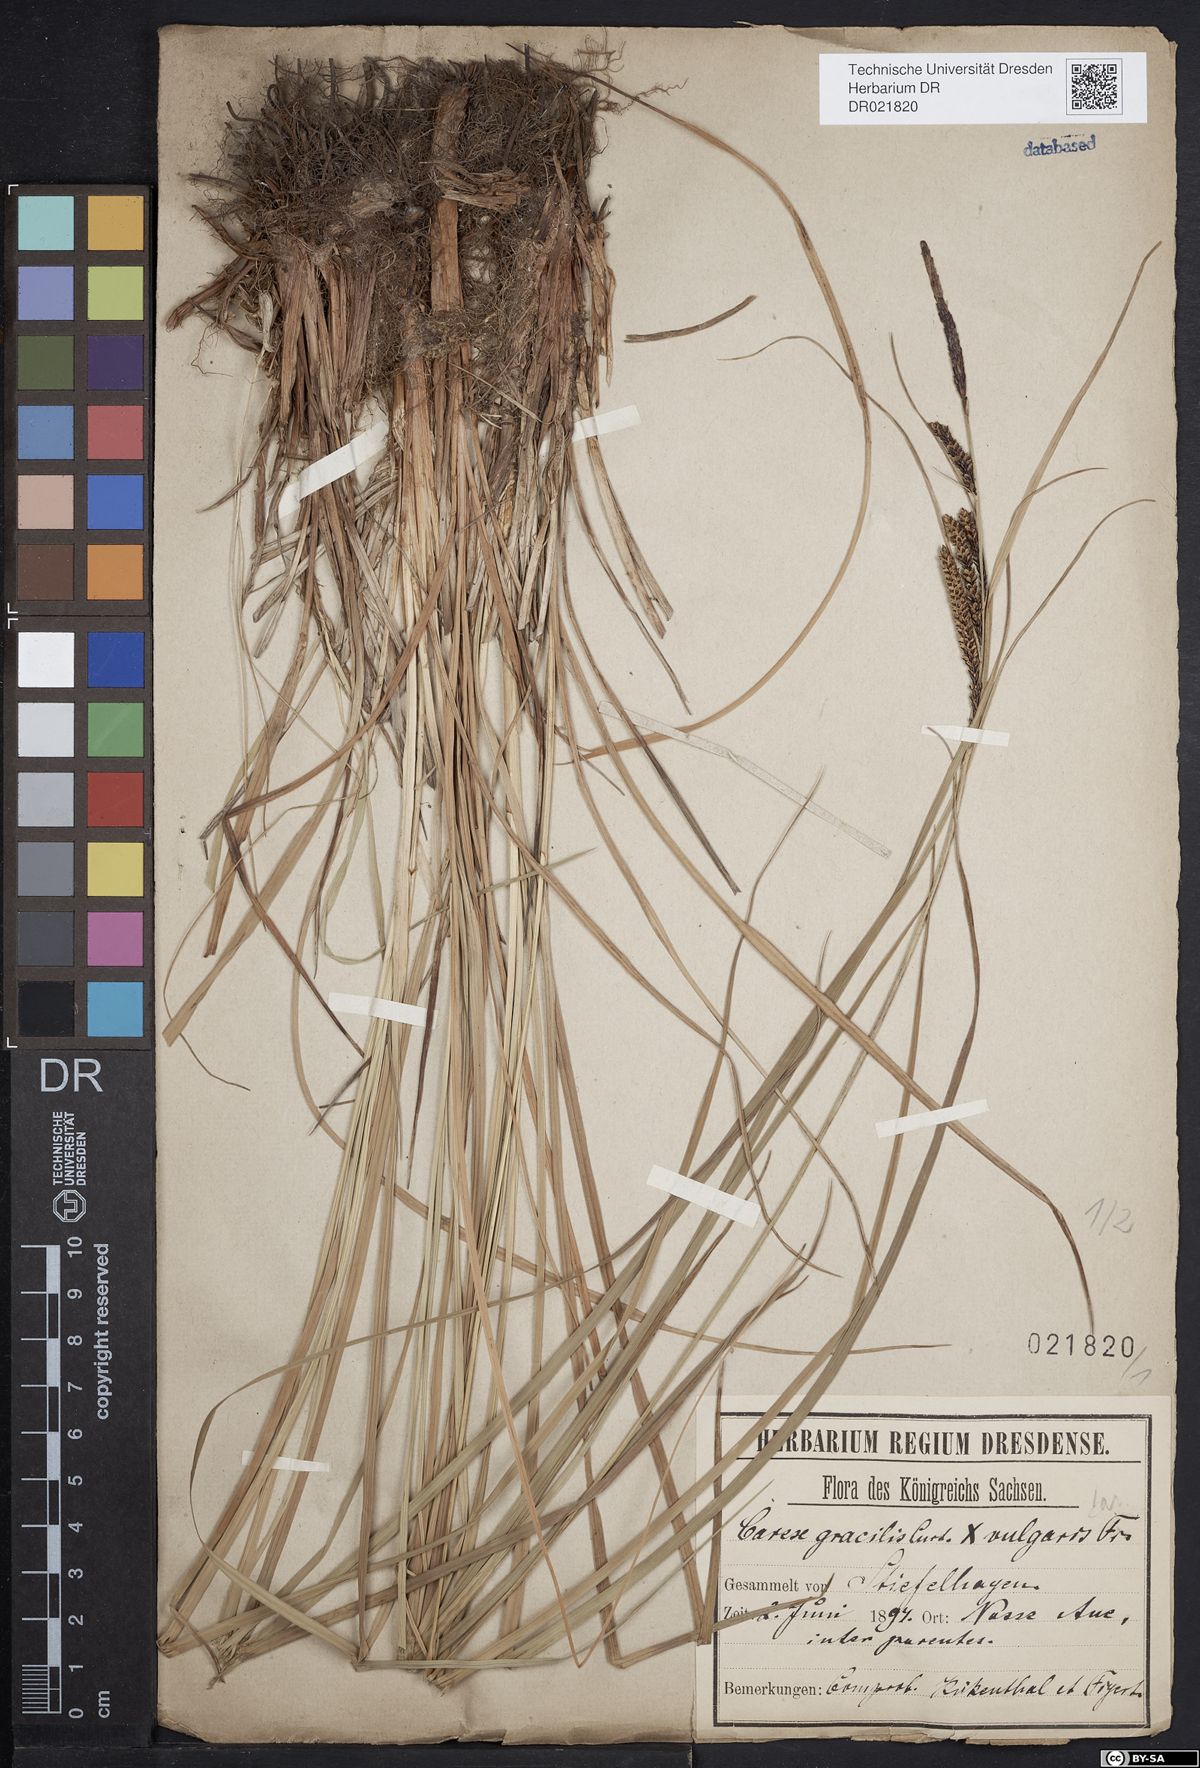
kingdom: Plantae
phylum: Tracheophyta
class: Liliopsida
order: Poales
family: Cyperaceae
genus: Carex
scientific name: Carex elytroides
